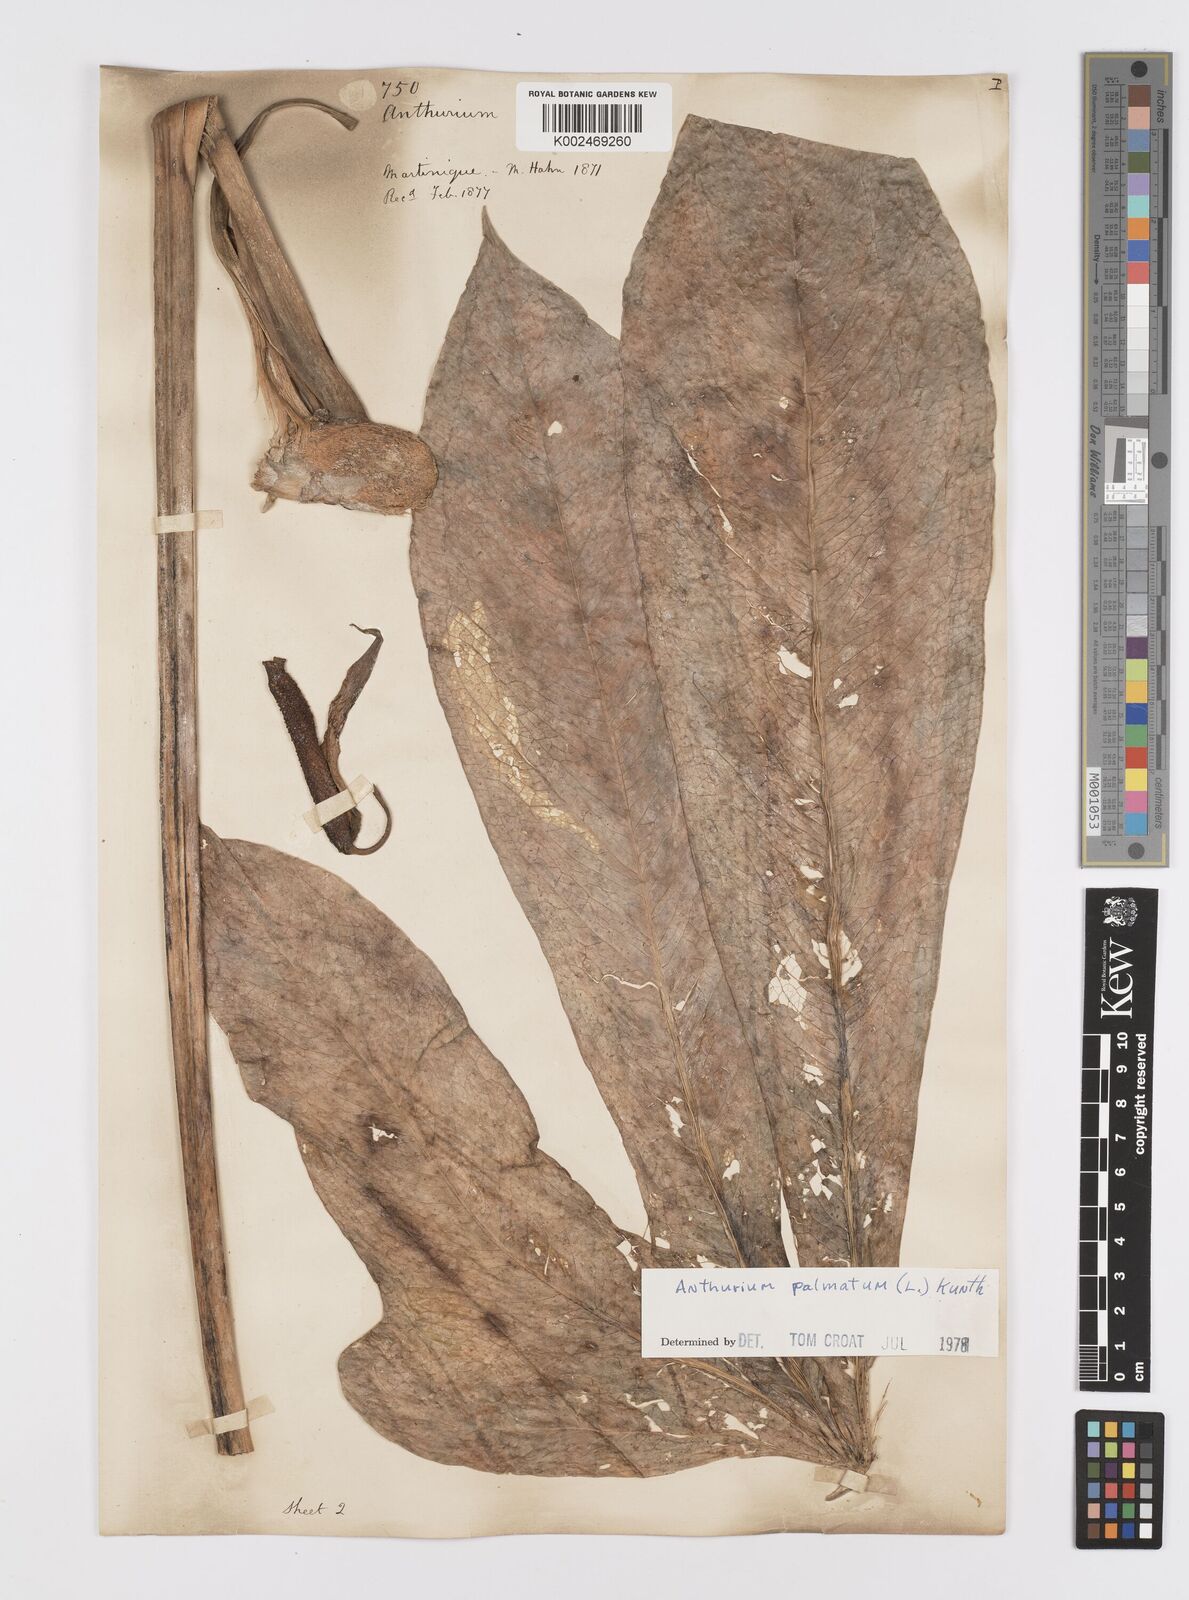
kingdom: Plantae
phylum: Tracheophyta
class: Liliopsida
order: Alismatales
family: Araceae
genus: Anthurium
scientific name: Anthurium palmatum
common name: Mibi
